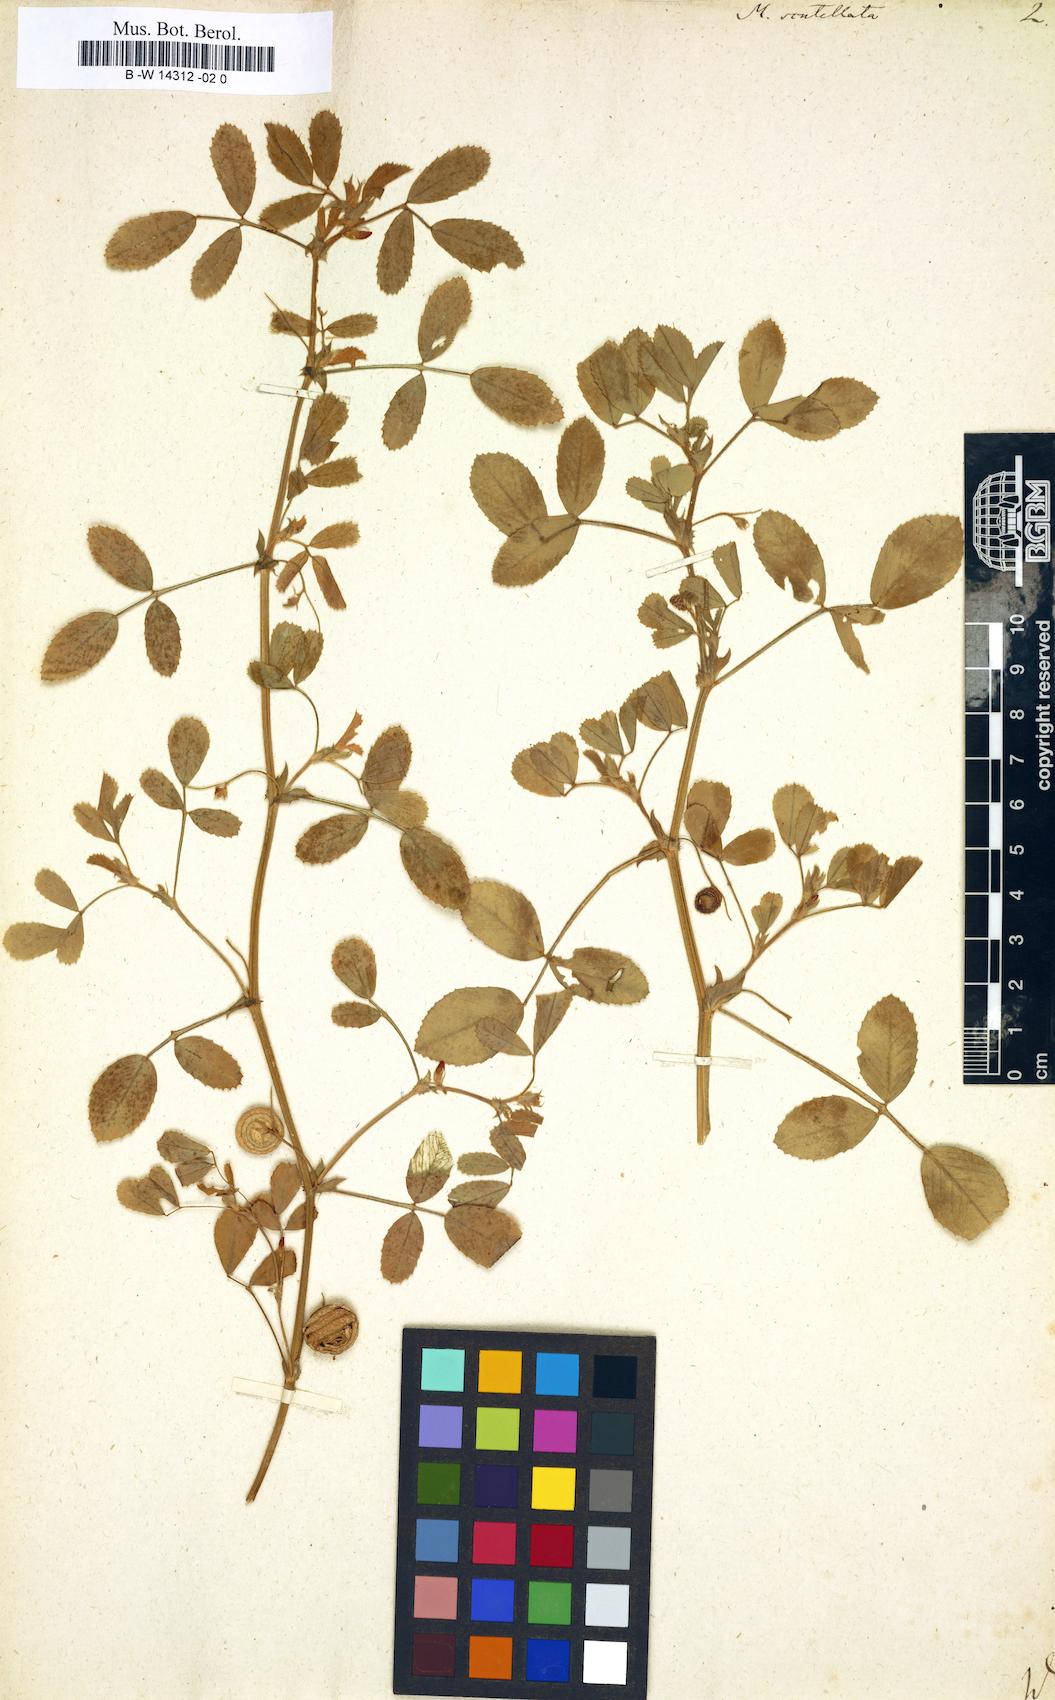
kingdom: Plantae
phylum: Tracheophyta
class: Magnoliopsida
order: Fabales
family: Fabaceae
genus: Medicago
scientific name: Medicago scutellata
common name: Snail medick
